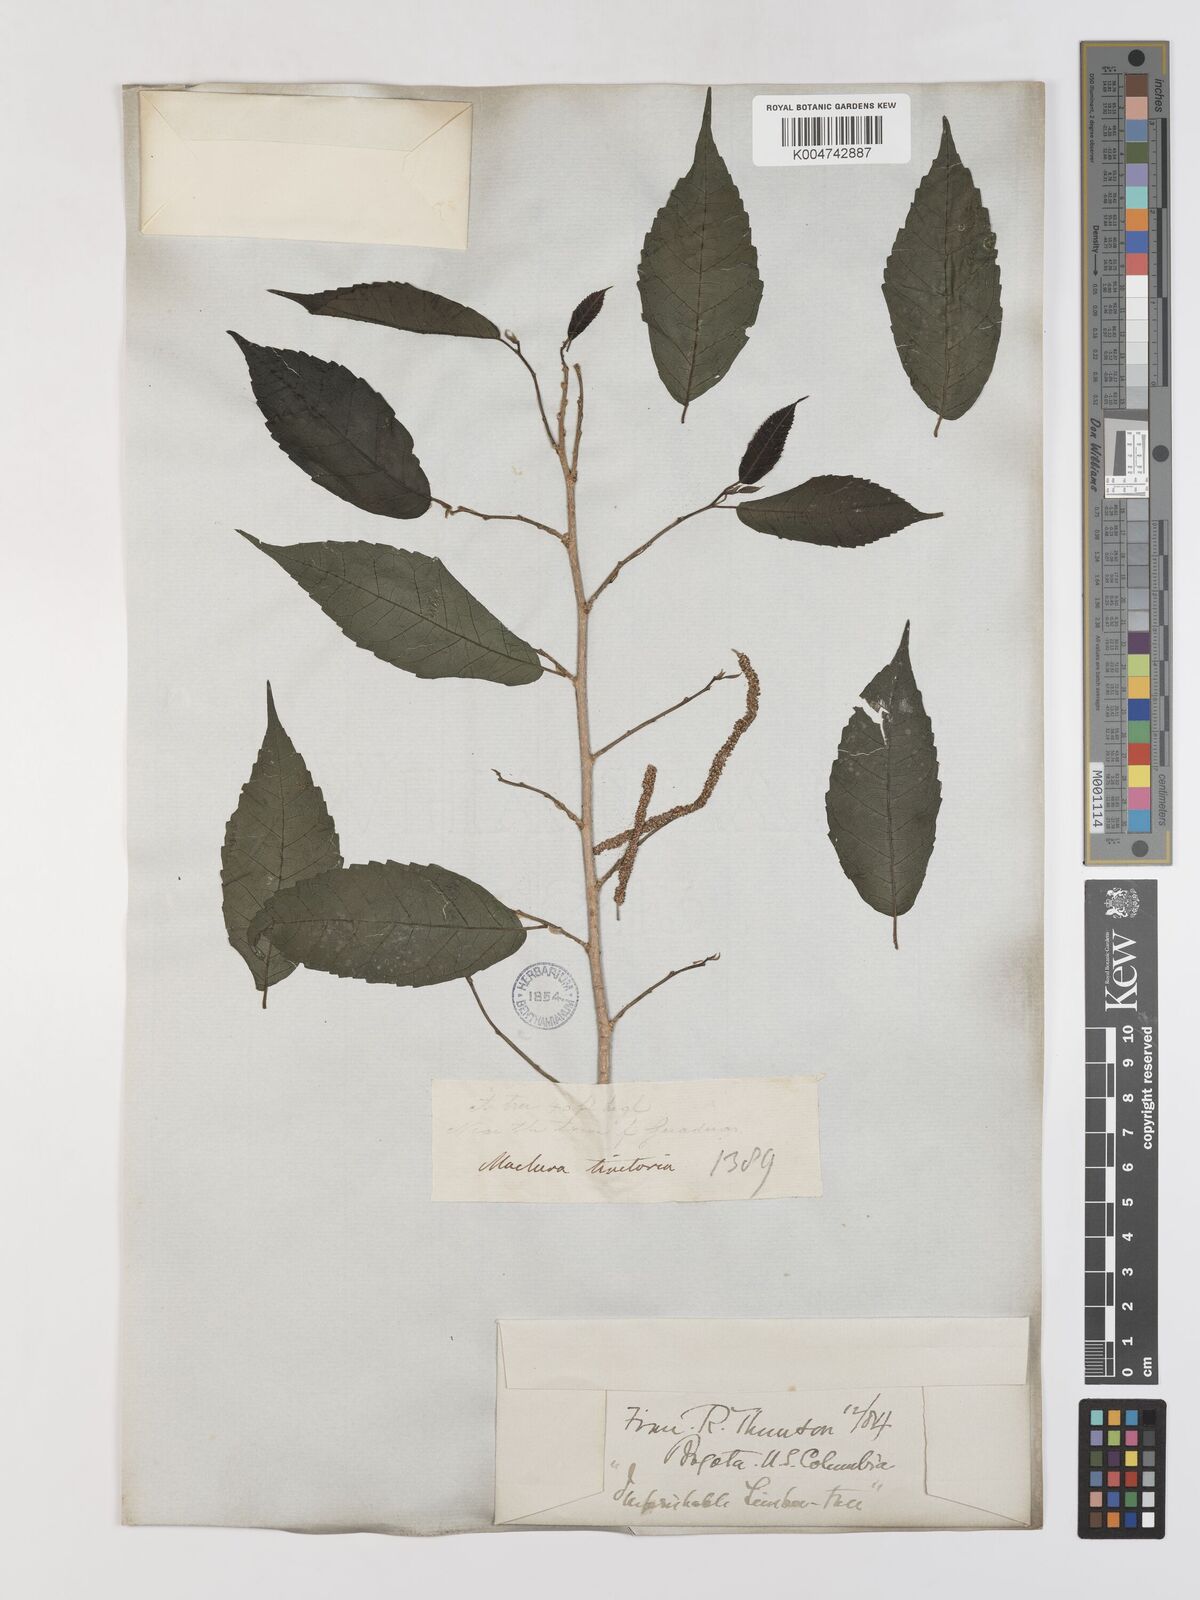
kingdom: Plantae
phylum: Tracheophyta
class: Magnoliopsida
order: Rosales
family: Moraceae
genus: Maclura
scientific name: Maclura tinctoria
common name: Old fustic
